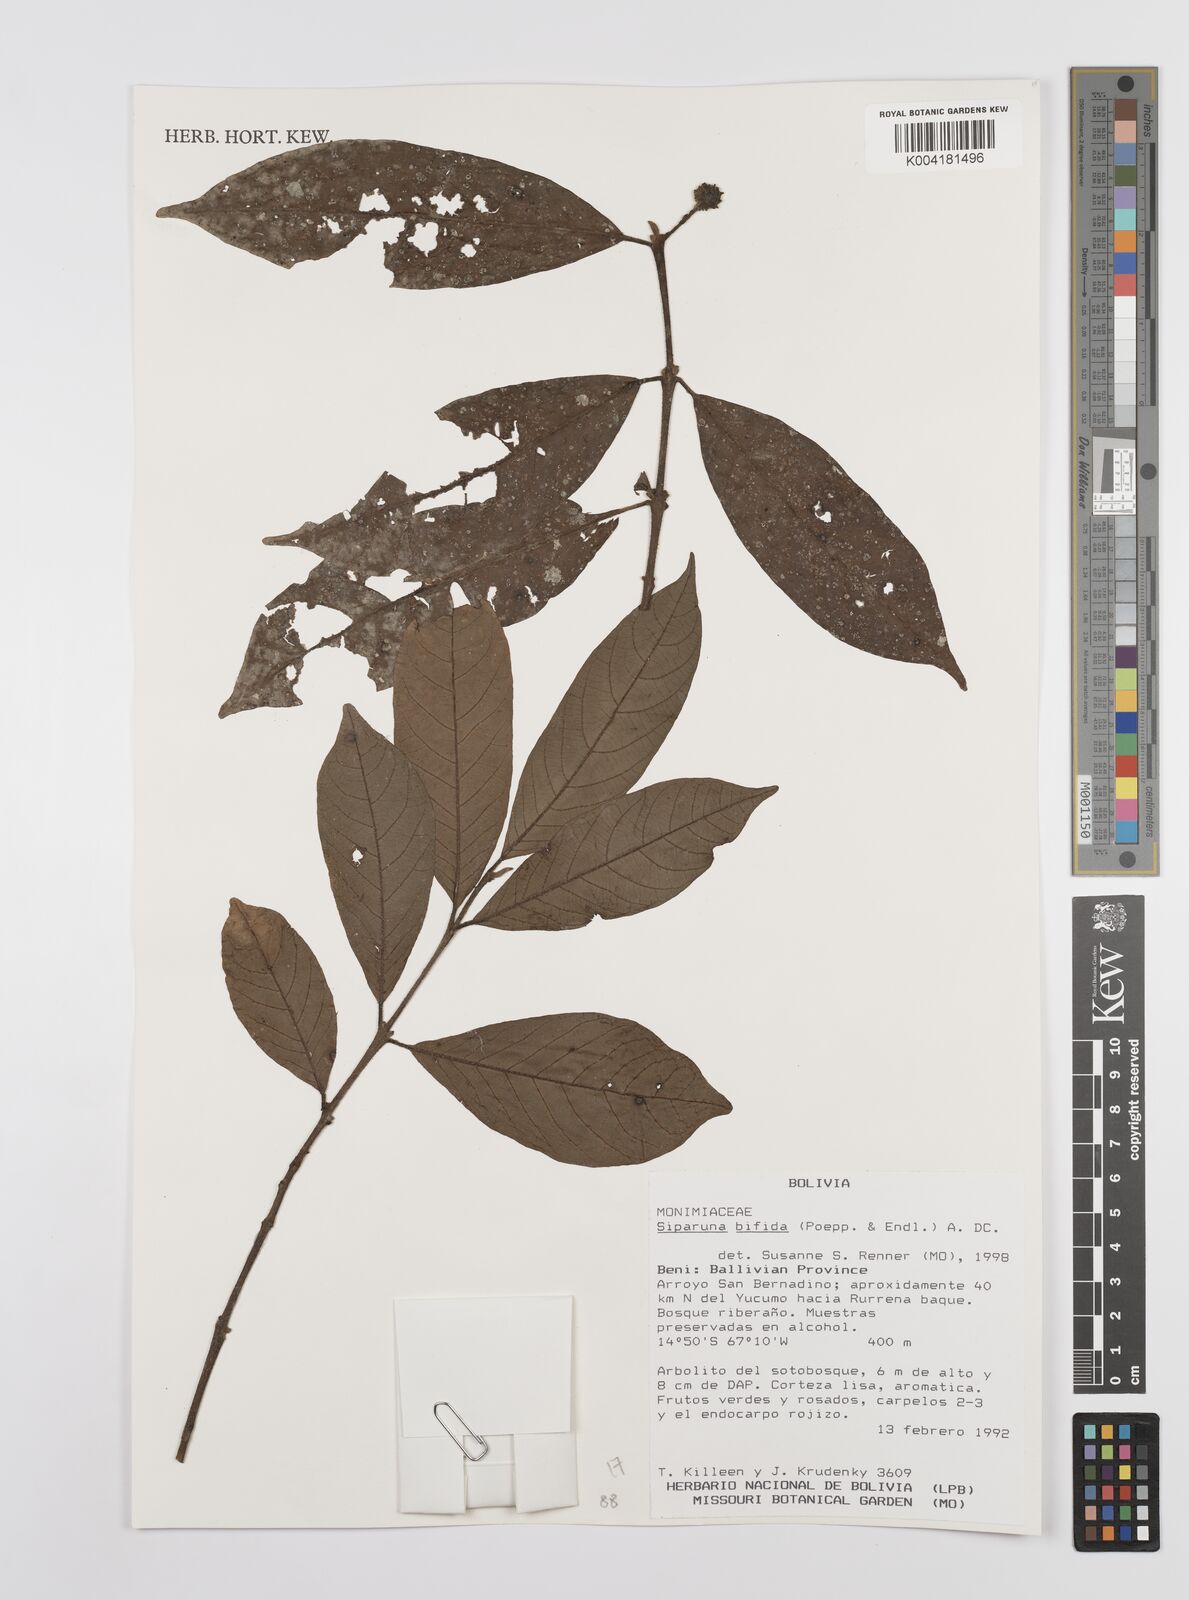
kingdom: Plantae
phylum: Tracheophyta
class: Magnoliopsida
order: Laurales
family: Siparunaceae
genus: Siparuna
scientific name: Siparuna bifida
